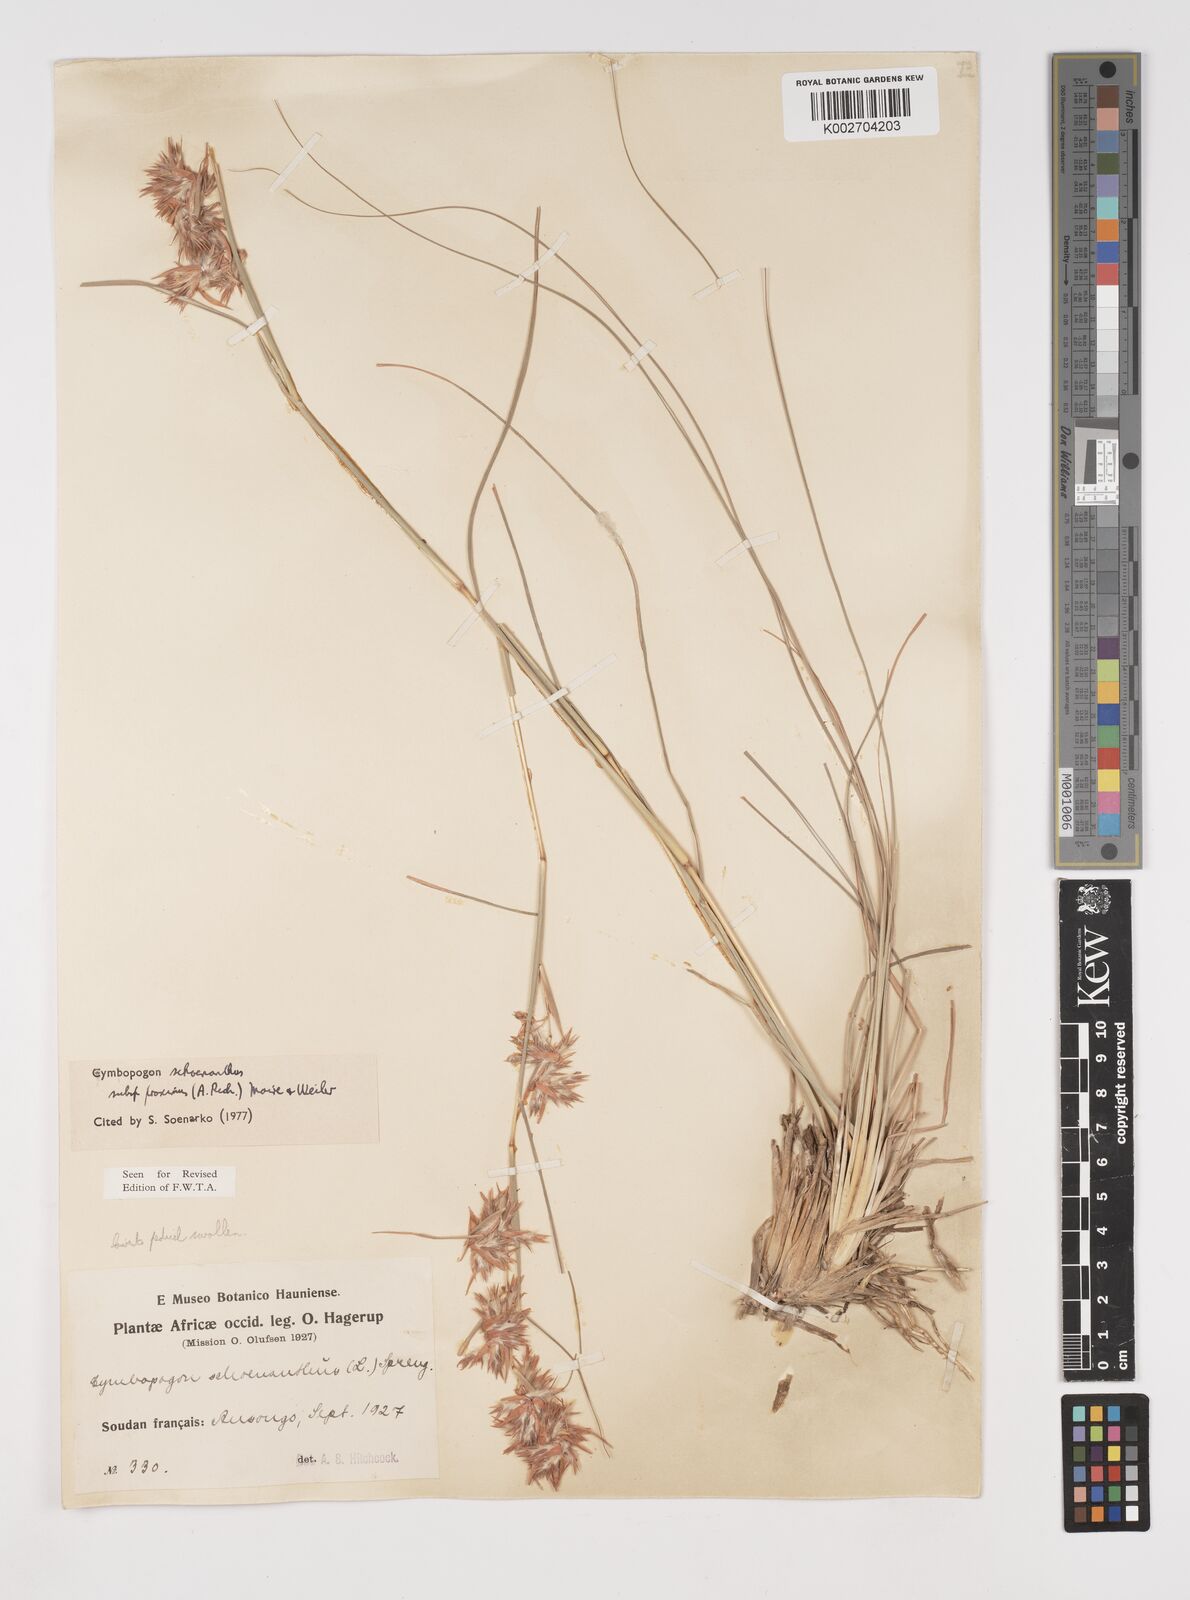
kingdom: Plantae
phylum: Tracheophyta
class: Liliopsida
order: Poales
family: Poaceae
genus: Cymbopogon
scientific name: Cymbopogon schoenanthus
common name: Geranium grass
